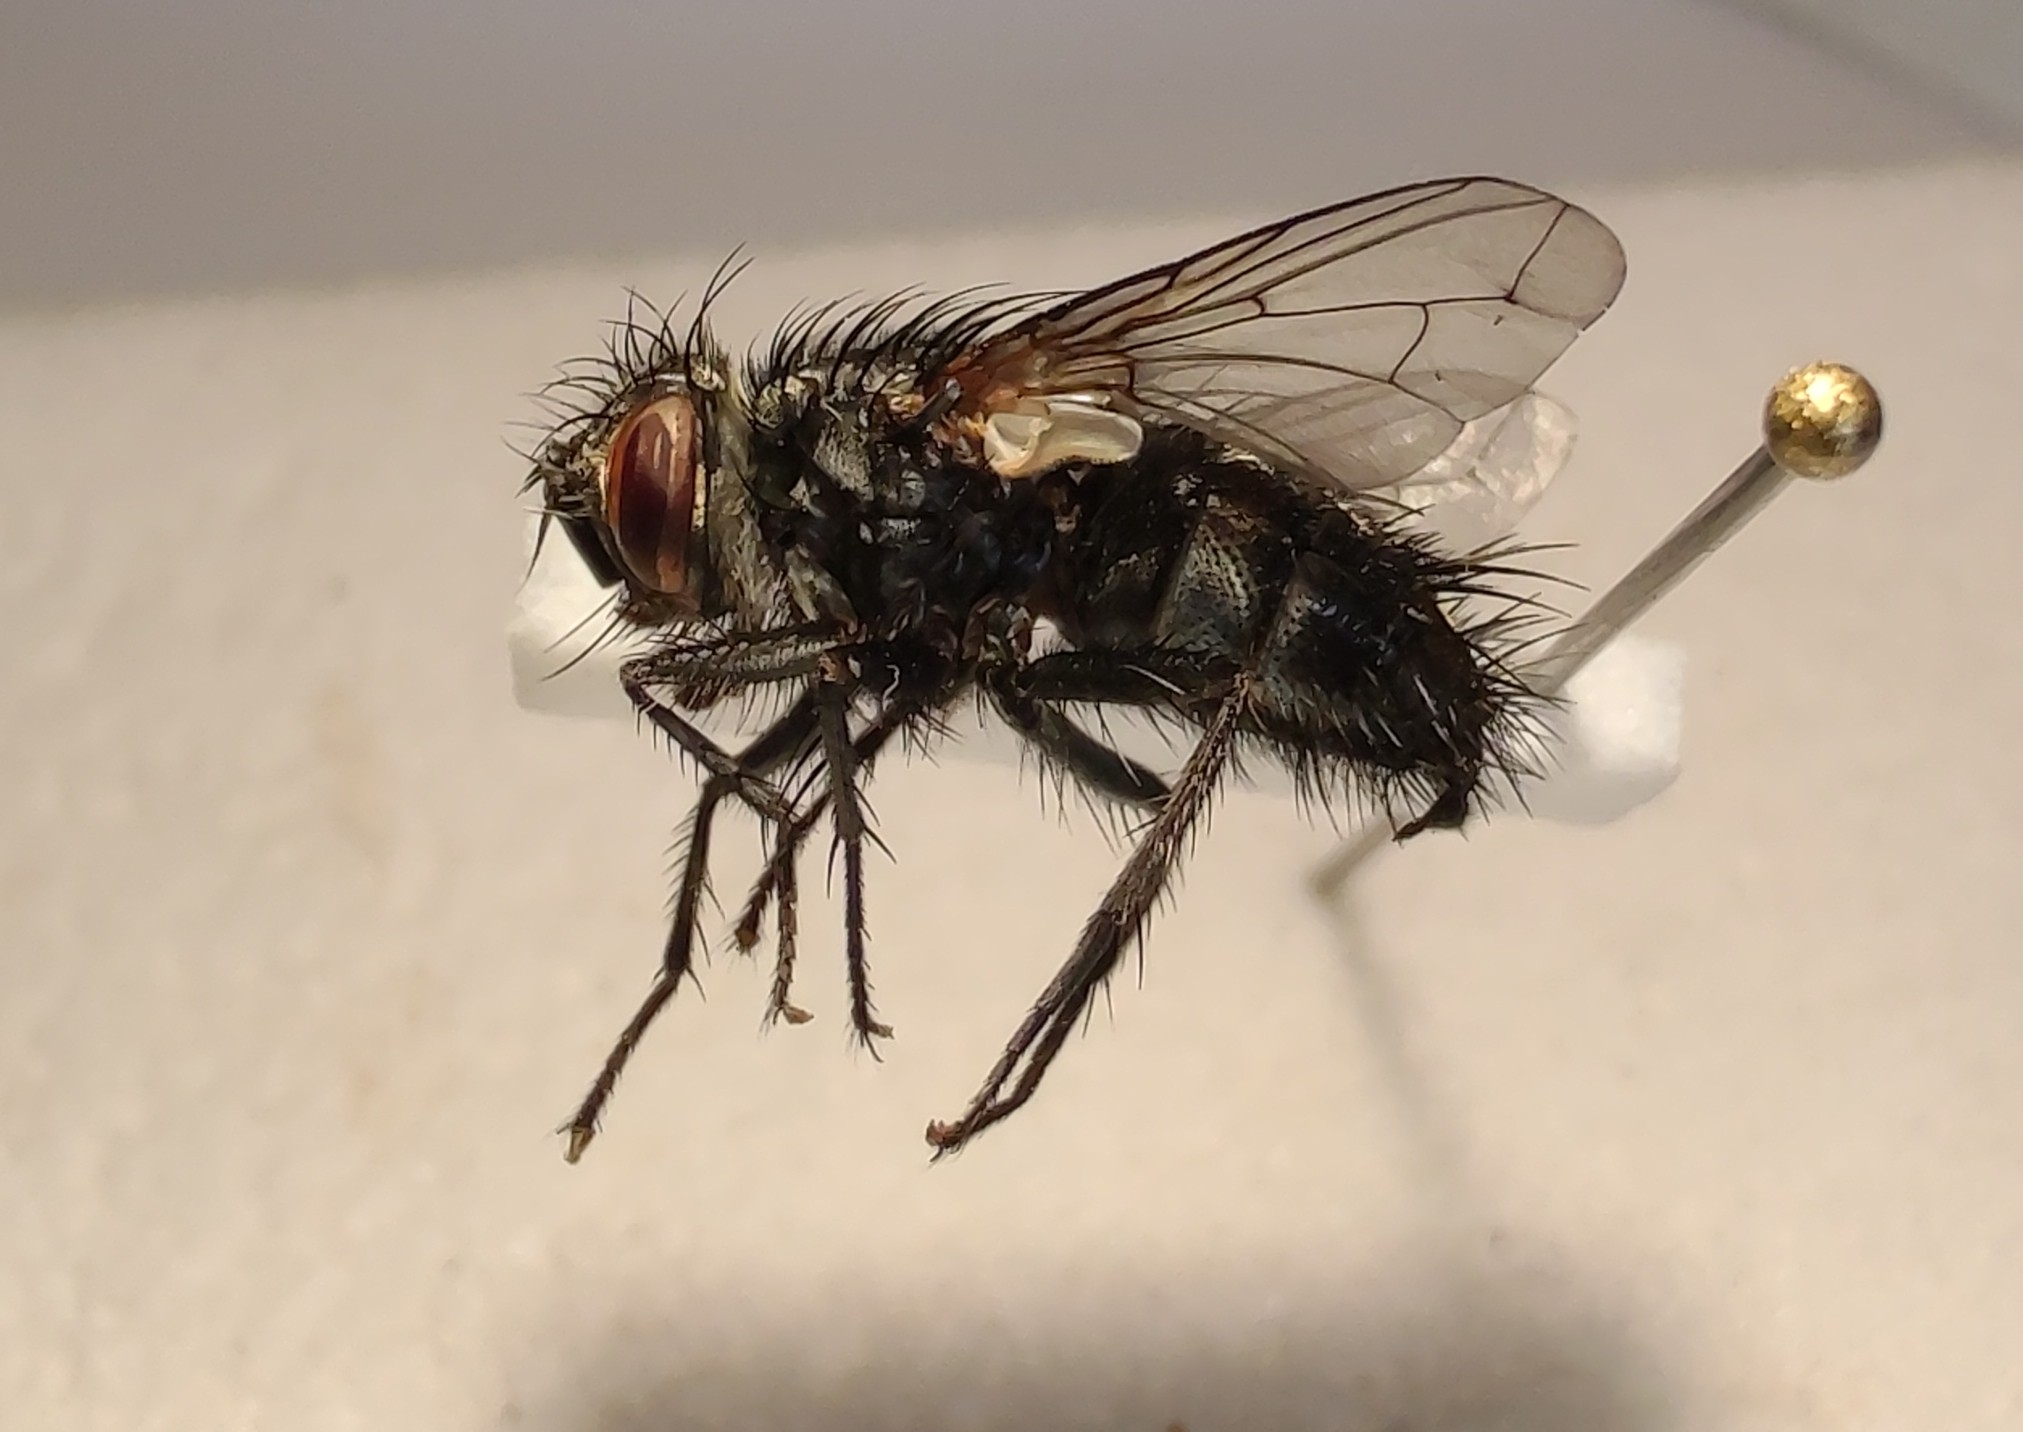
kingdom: Animalia
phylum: Arthropoda
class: Insecta
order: Diptera
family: Tachinidae
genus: Exorista
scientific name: Exorista larvarum
